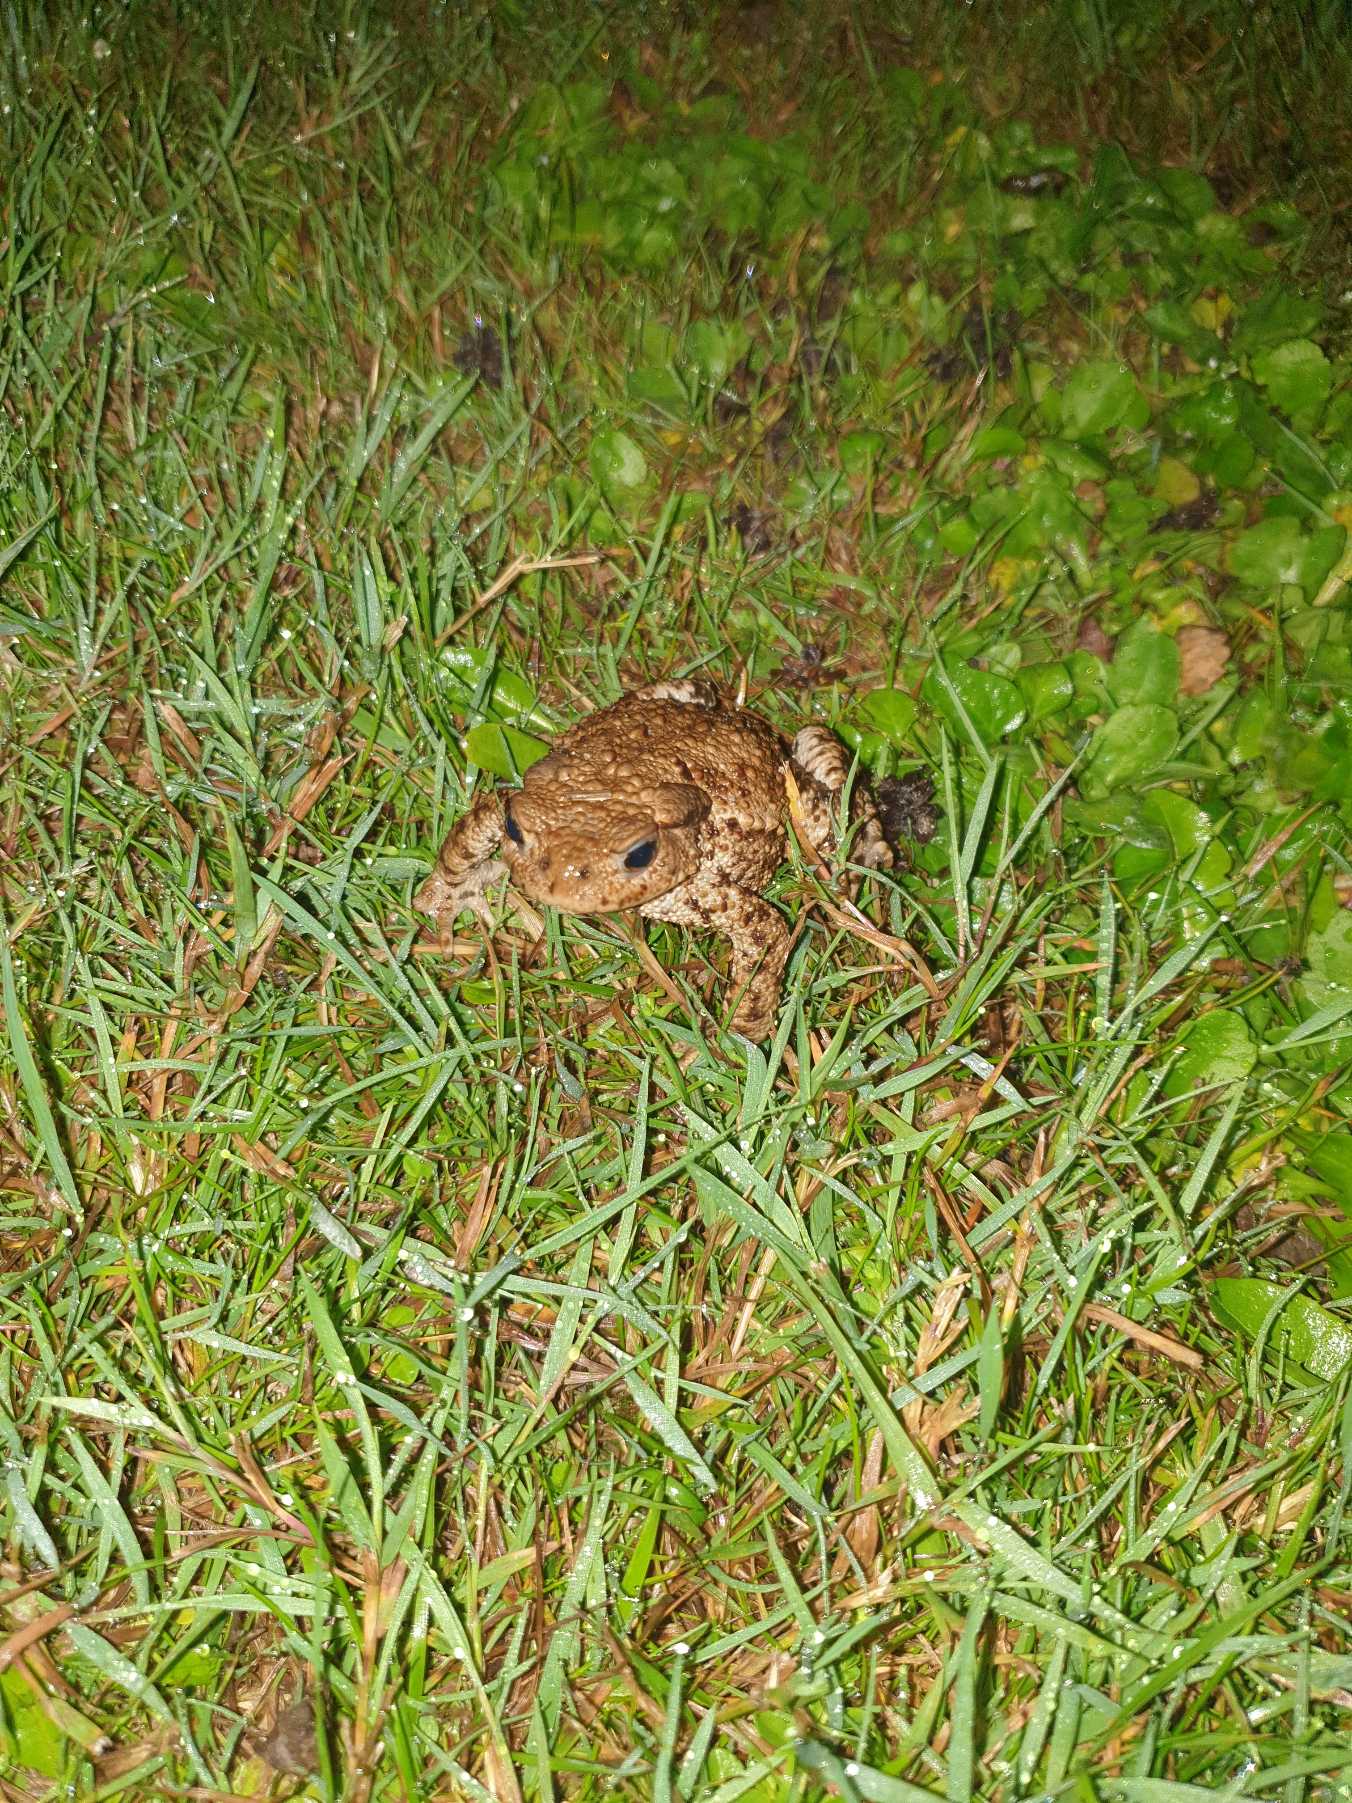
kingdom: Animalia
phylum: Chordata
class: Amphibia
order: Anura
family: Bufonidae
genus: Bufo
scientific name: Bufo bufo
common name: Skrubtudse
